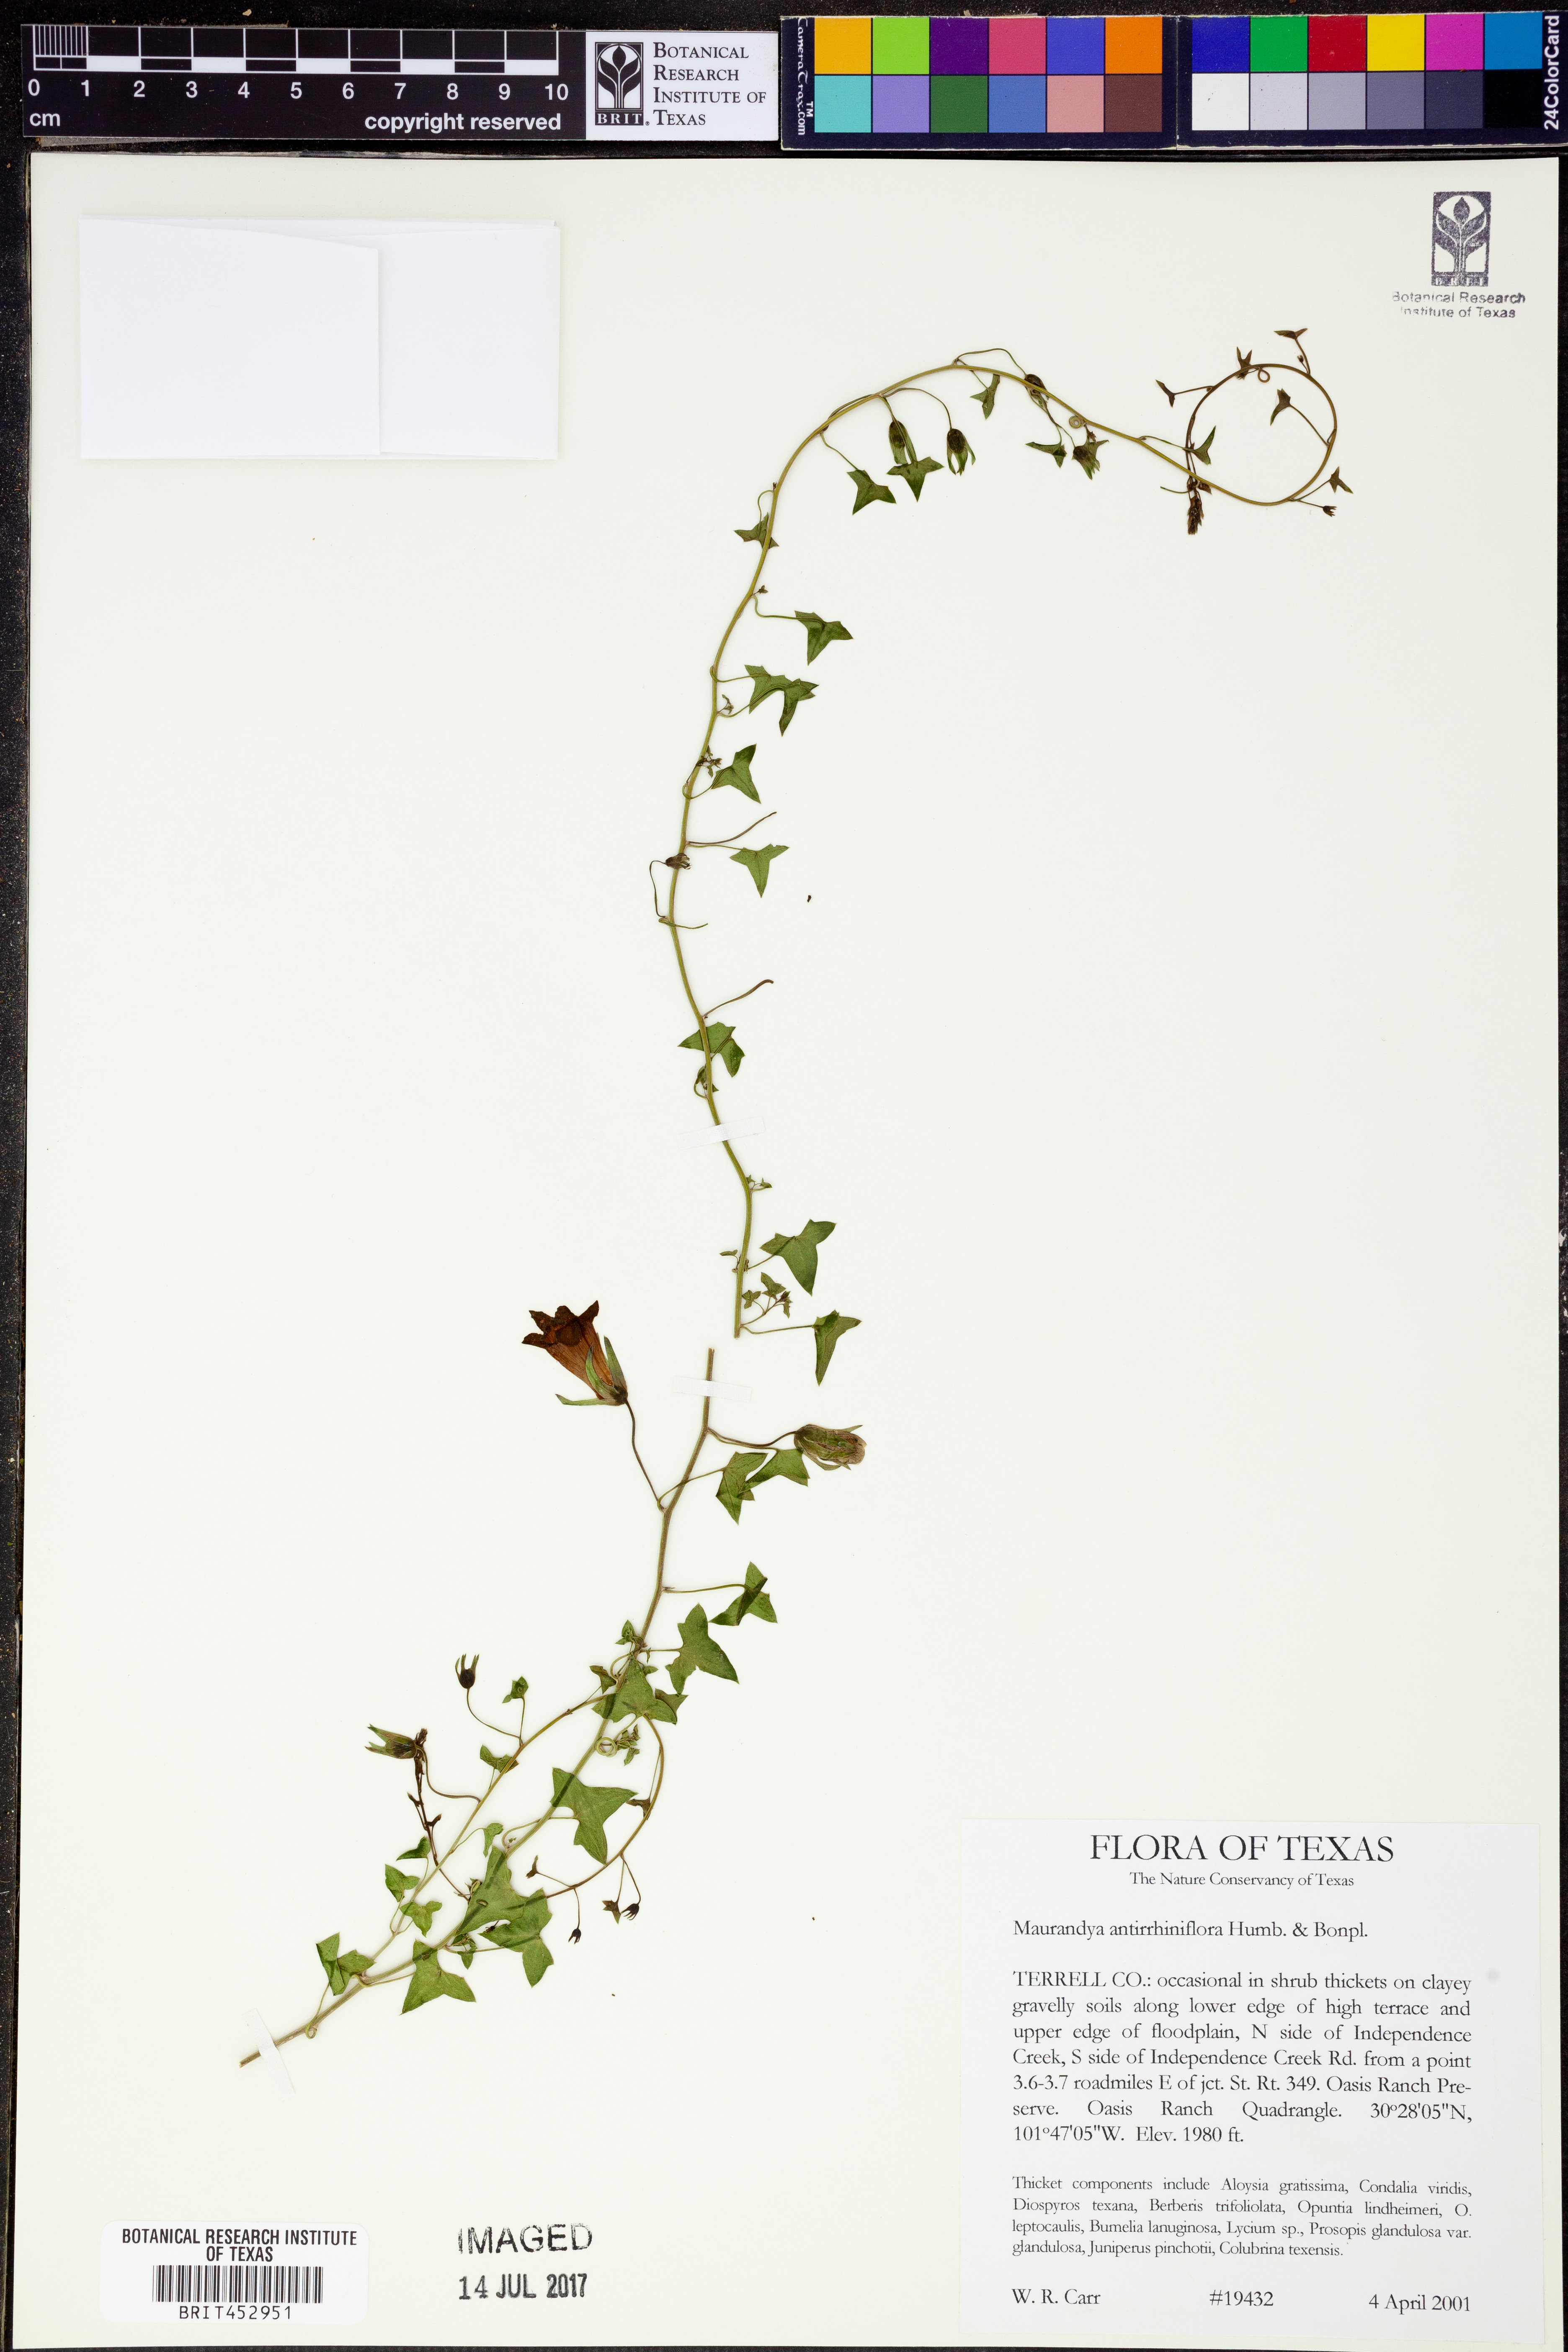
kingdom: Plantae
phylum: Tracheophyta
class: Magnoliopsida
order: Lamiales
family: Plantaginaceae
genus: Maurandella
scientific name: Maurandella antirrhiniflora
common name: Violet twining-snapdragon
